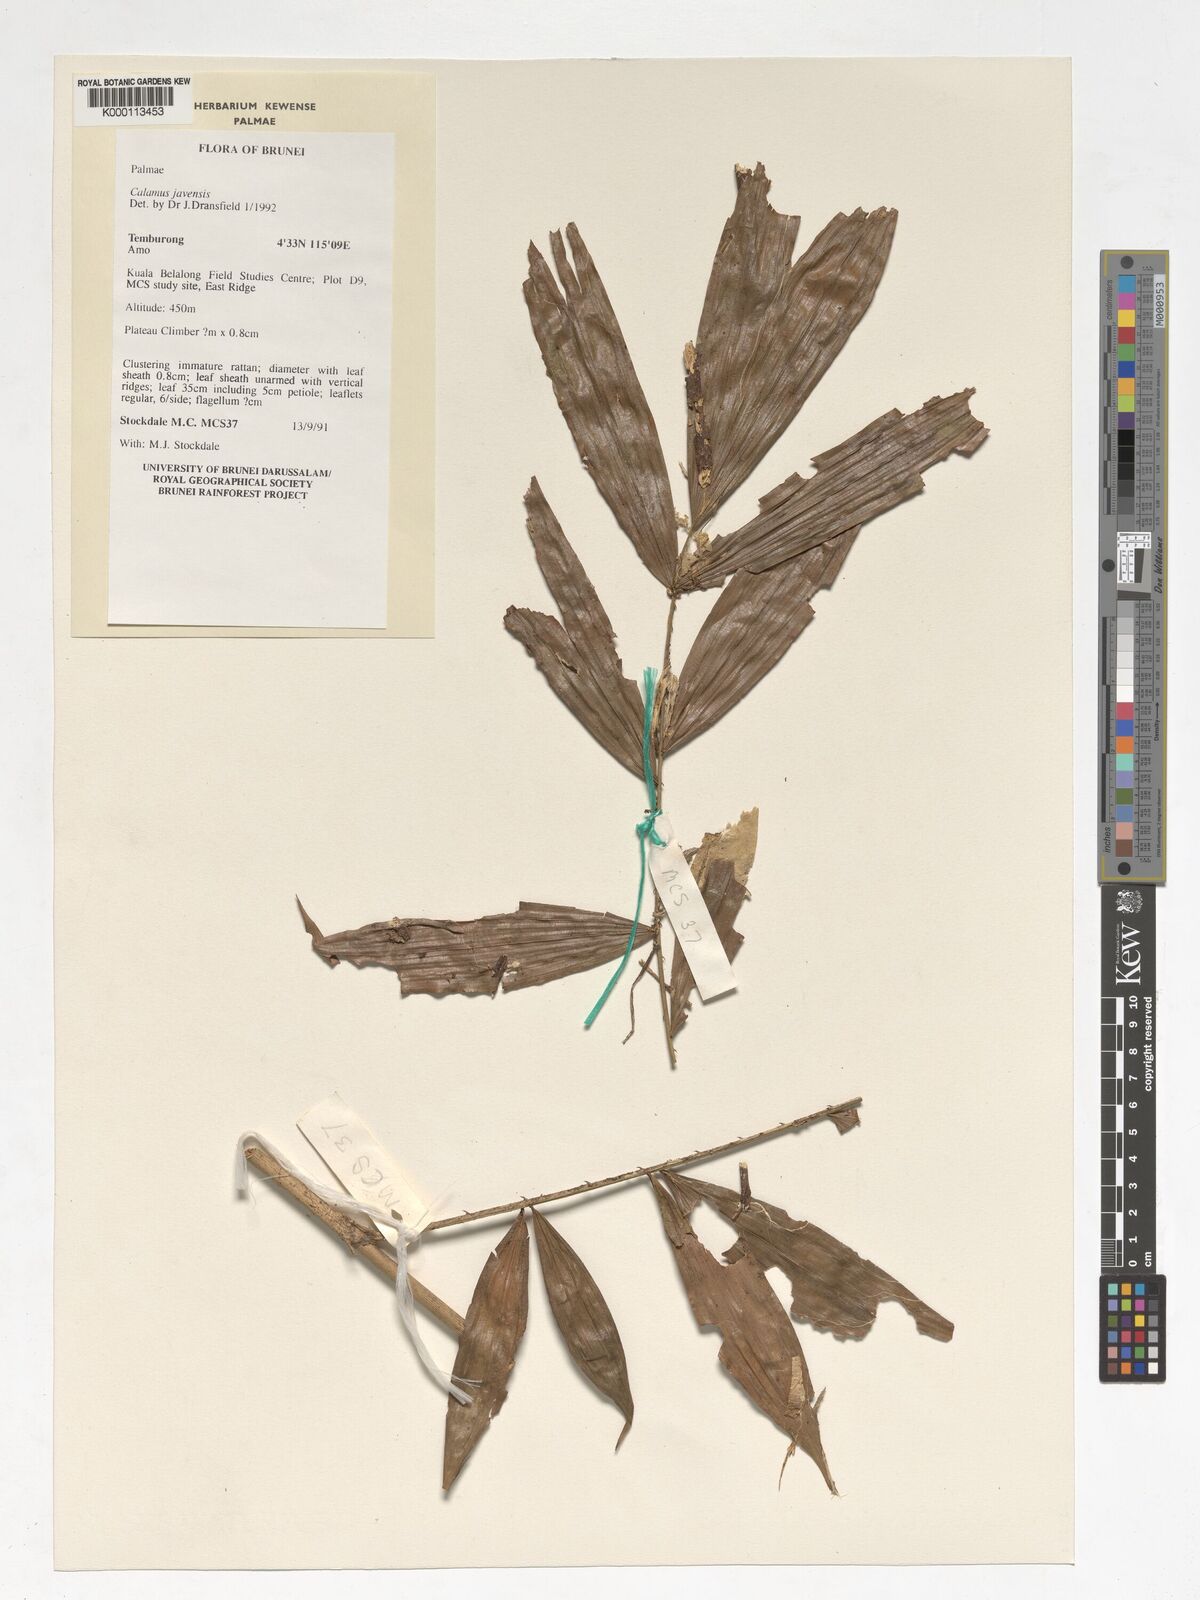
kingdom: Plantae
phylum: Tracheophyta
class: Liliopsida
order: Arecales
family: Arecaceae
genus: Calamus
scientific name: Calamus javensis
